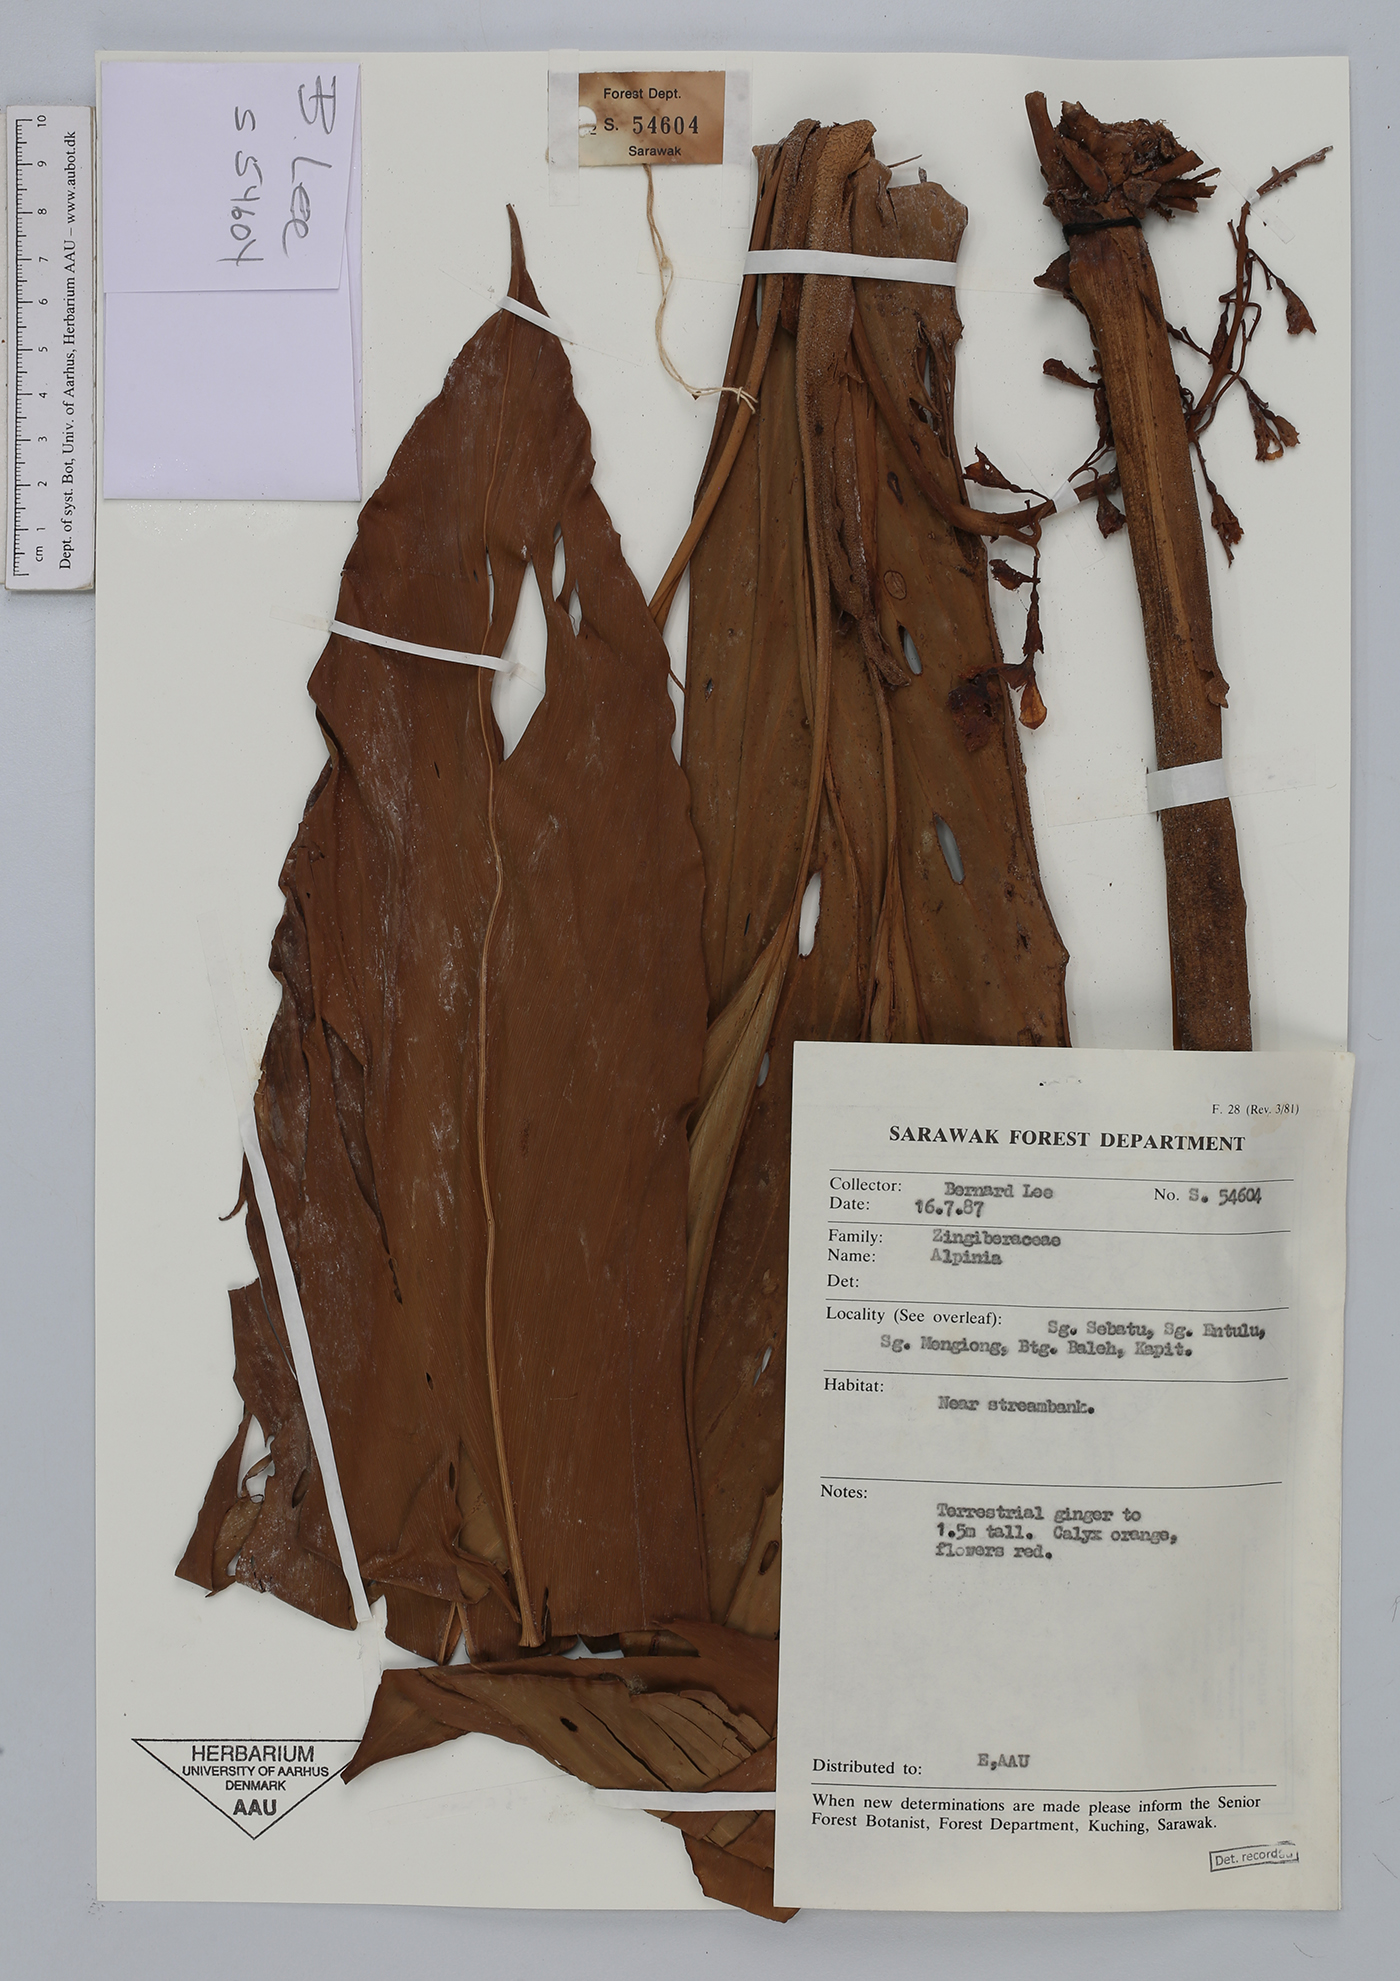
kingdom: Plantae
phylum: Tracheophyta
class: Liliopsida
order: Zingiberales
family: Zingiberaceae
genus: Alpinia
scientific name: Alpinia
